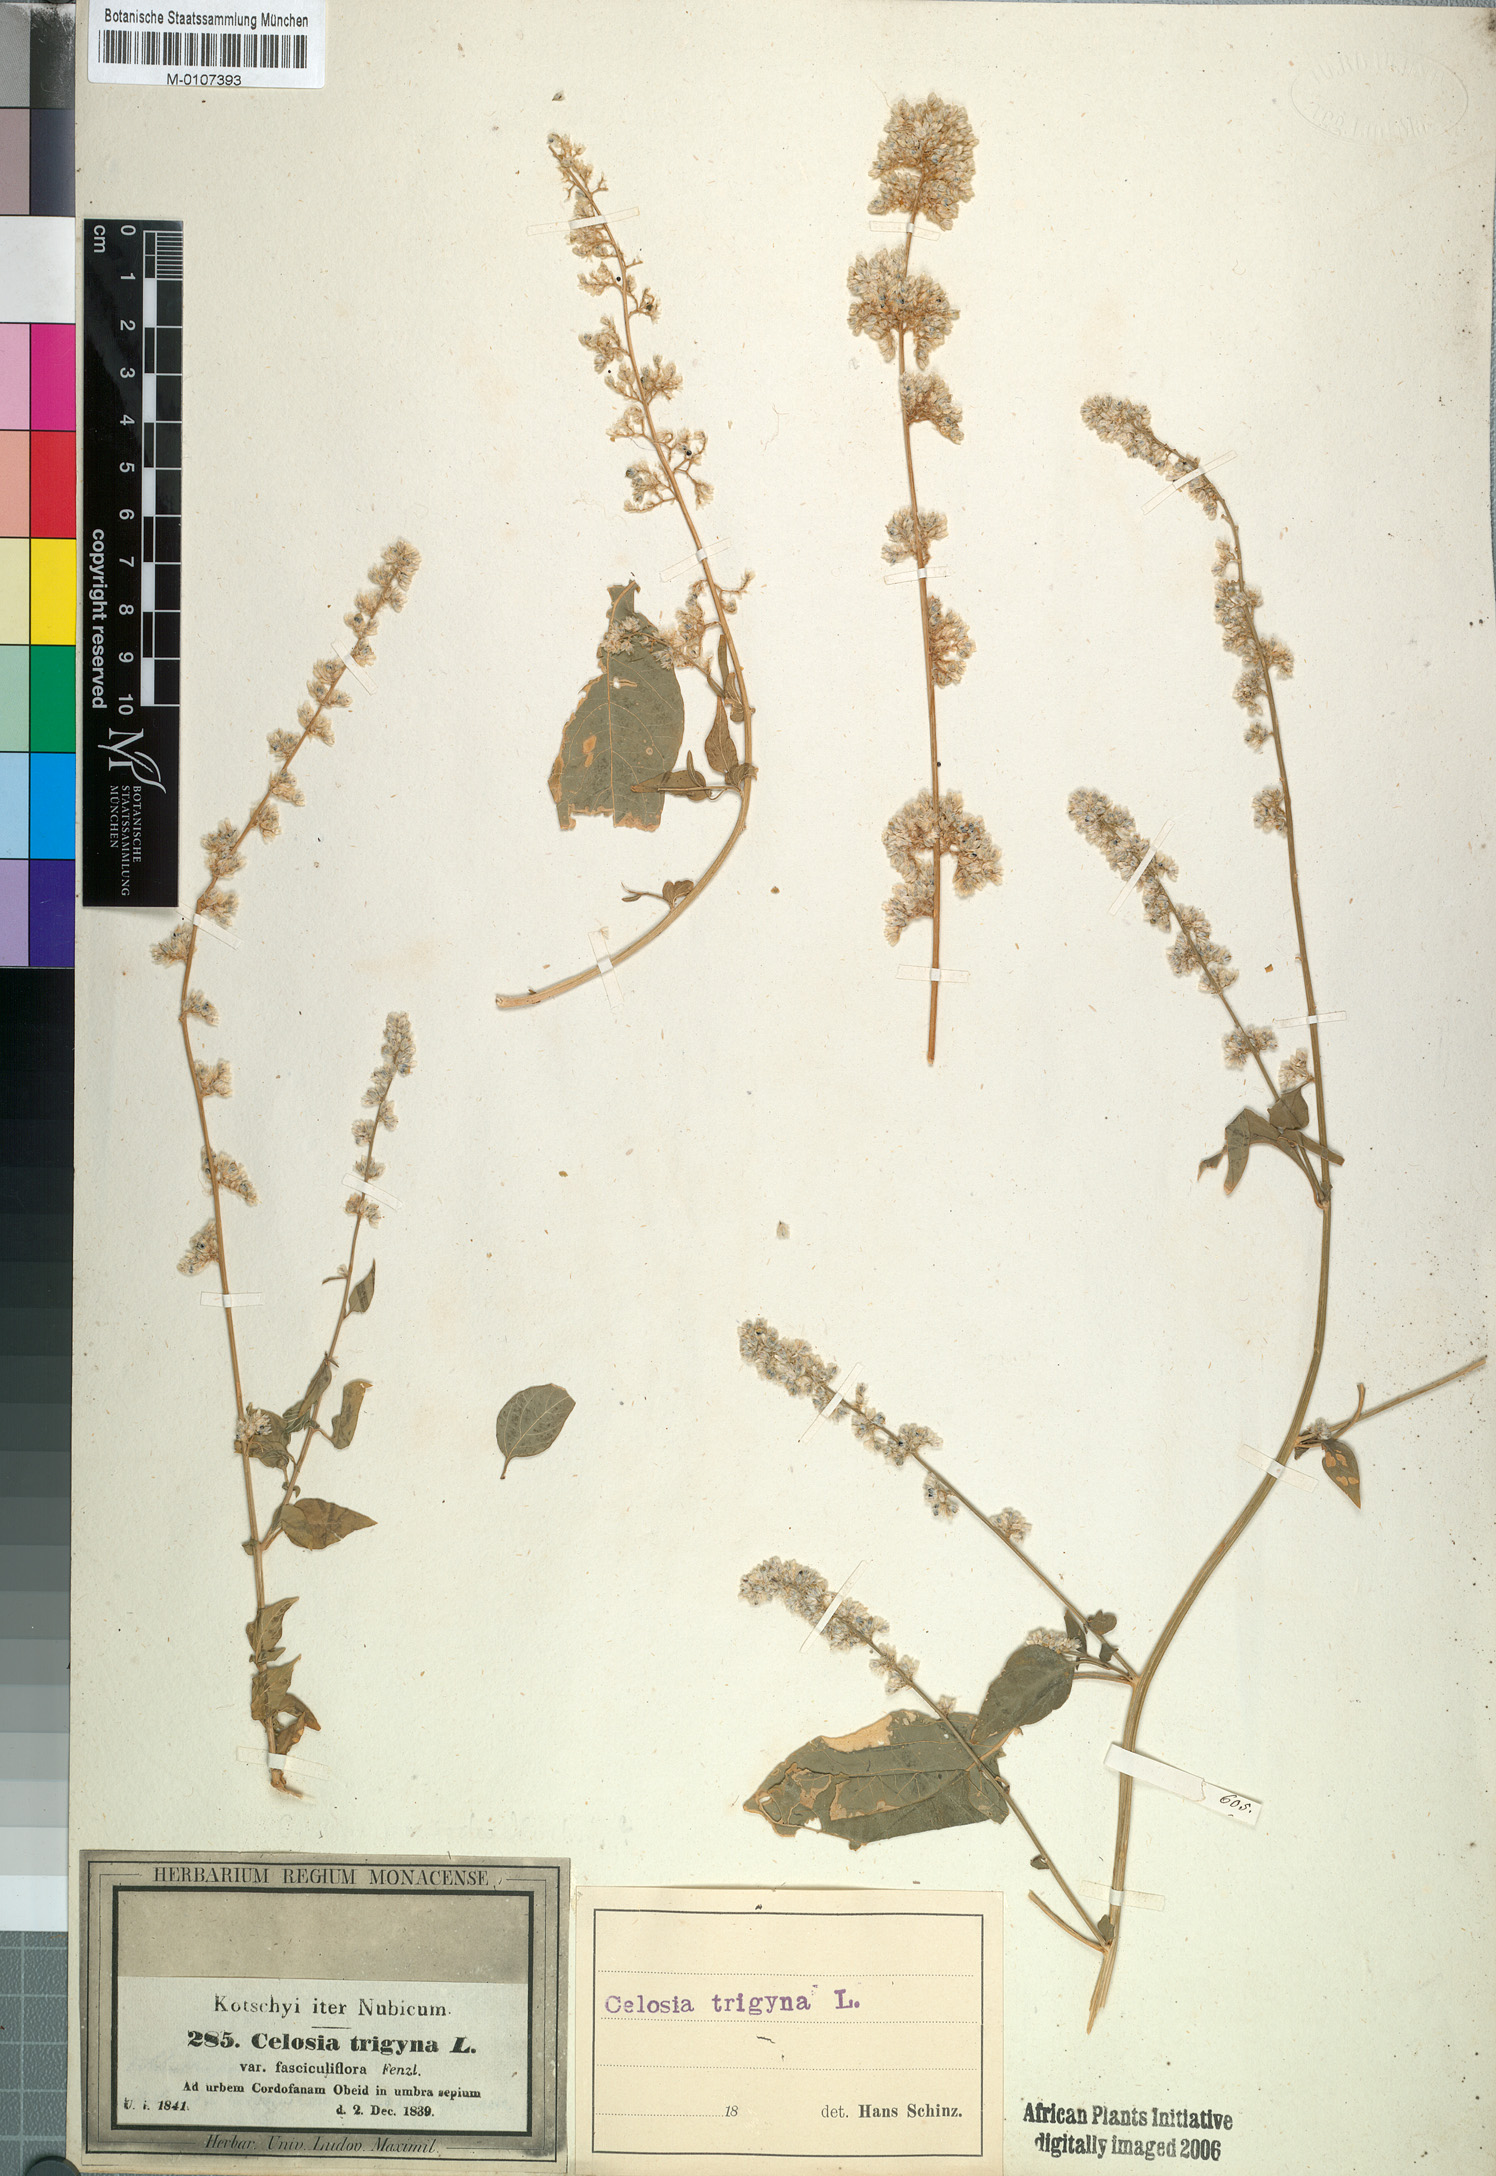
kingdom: Plantae
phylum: Tracheophyta
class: Magnoliopsida
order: Caryophyllales
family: Amaranthaceae
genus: Celosia
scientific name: Celosia trigyna
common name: Woolflower
